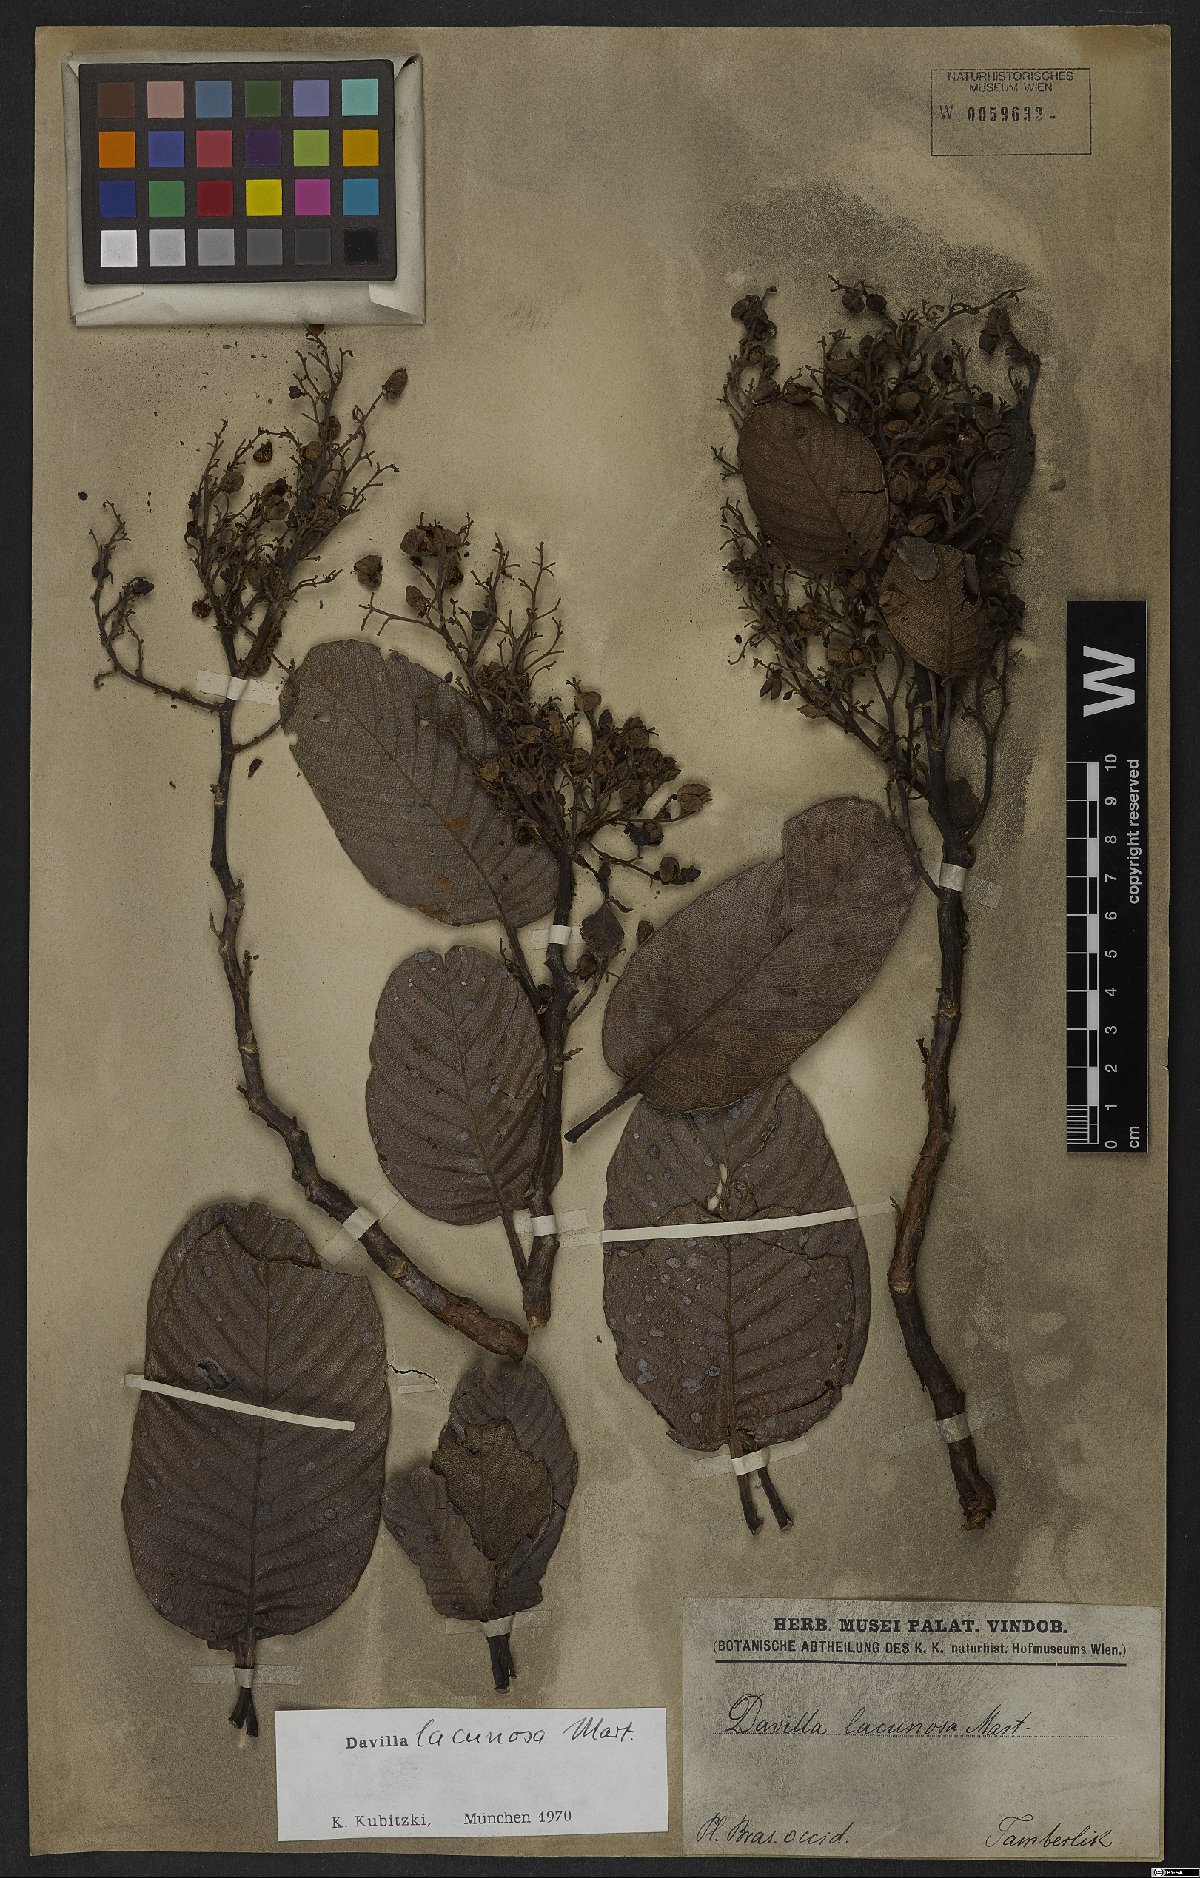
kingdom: Plantae
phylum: Tracheophyta
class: Magnoliopsida
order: Dilleniales
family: Dilleniaceae
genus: Davilla
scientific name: Davilla lacunosa
